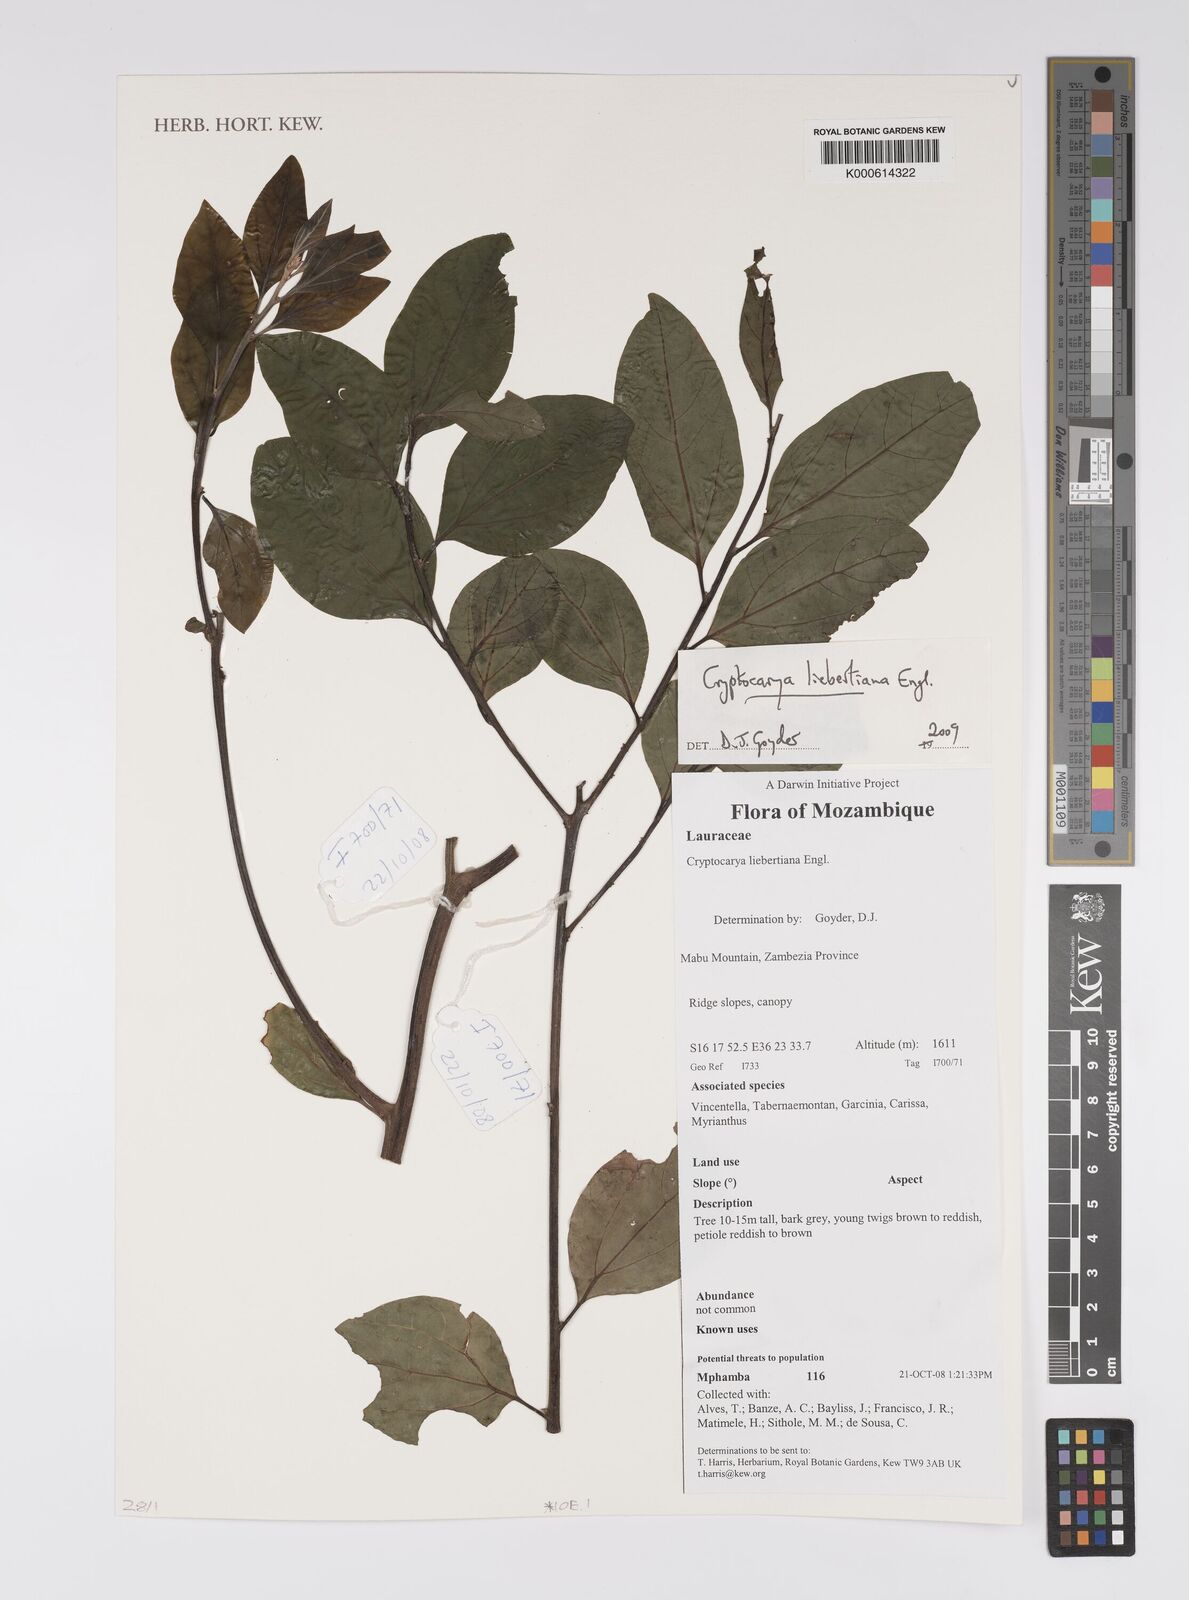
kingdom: Plantae
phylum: Tracheophyta
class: Magnoliopsida
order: Laurales
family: Lauraceae
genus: Cryptocarya
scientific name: Cryptocarya liebertiana
